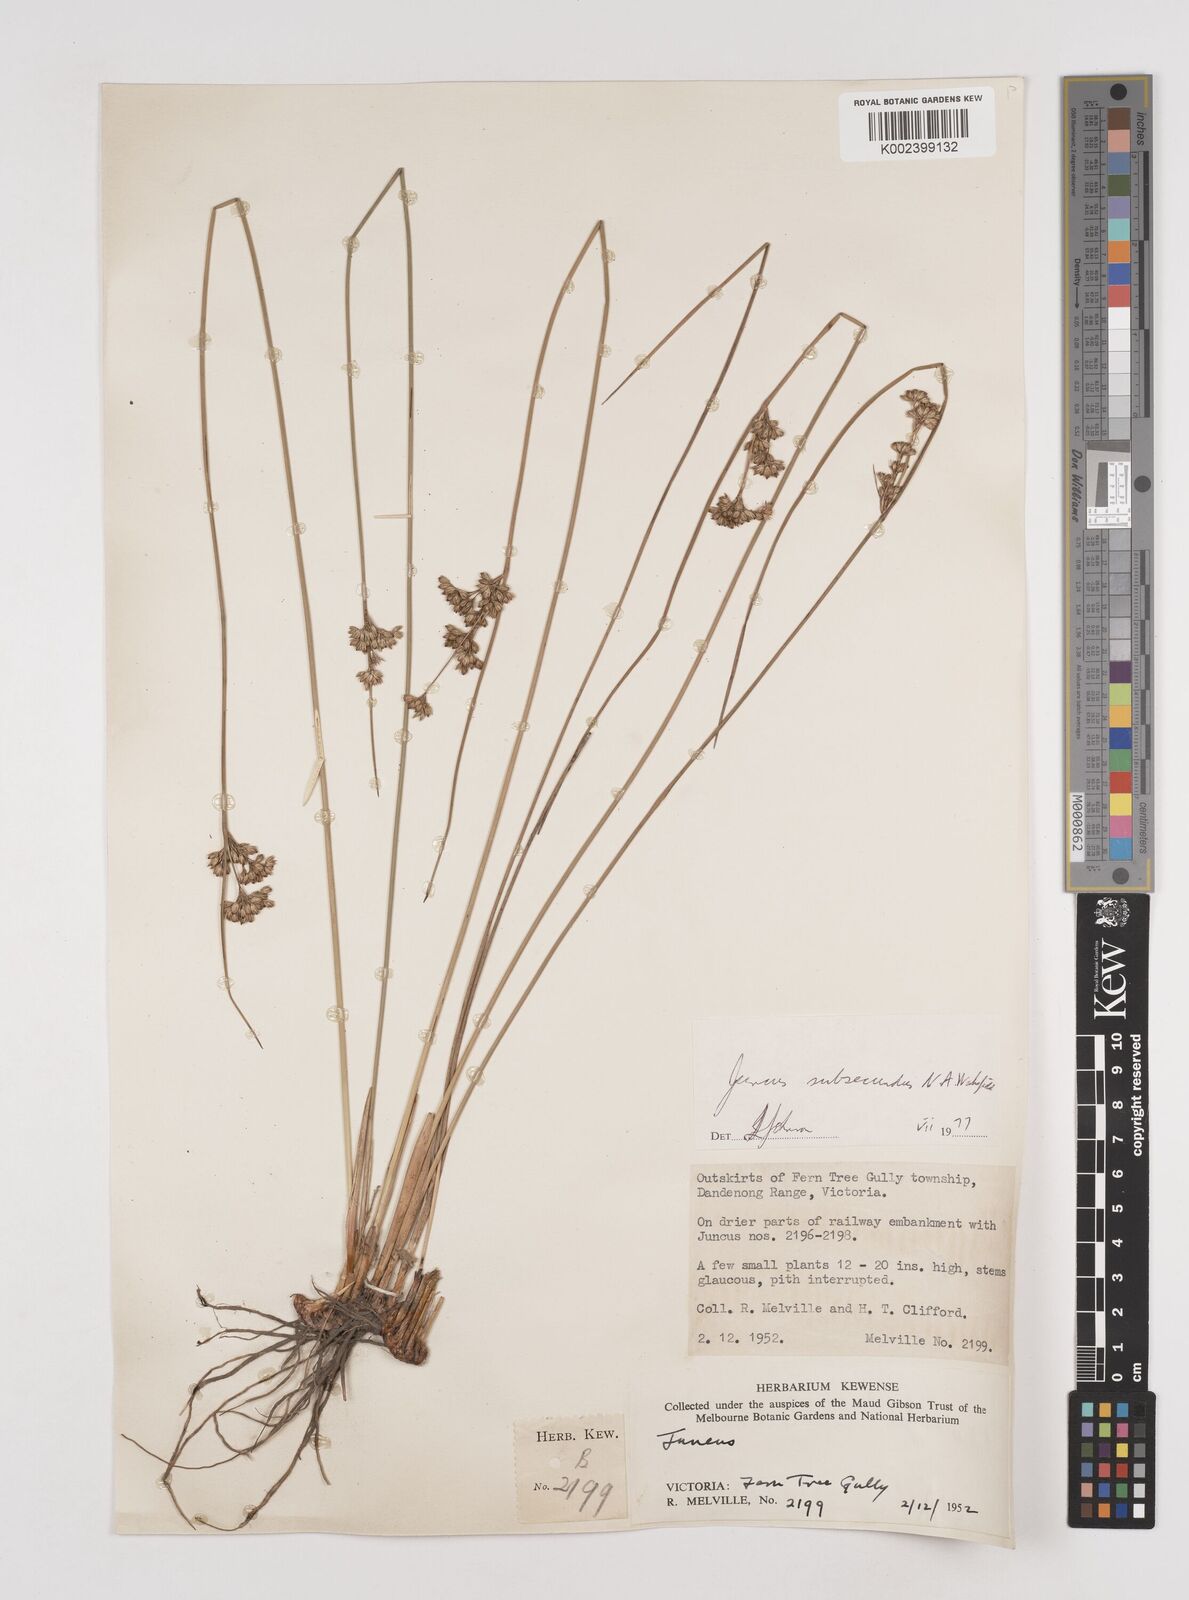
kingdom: Plantae
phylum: Tracheophyta
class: Liliopsida
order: Poales
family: Juncaceae
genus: Juncus
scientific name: Juncus subsecundus
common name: Fingered rush
